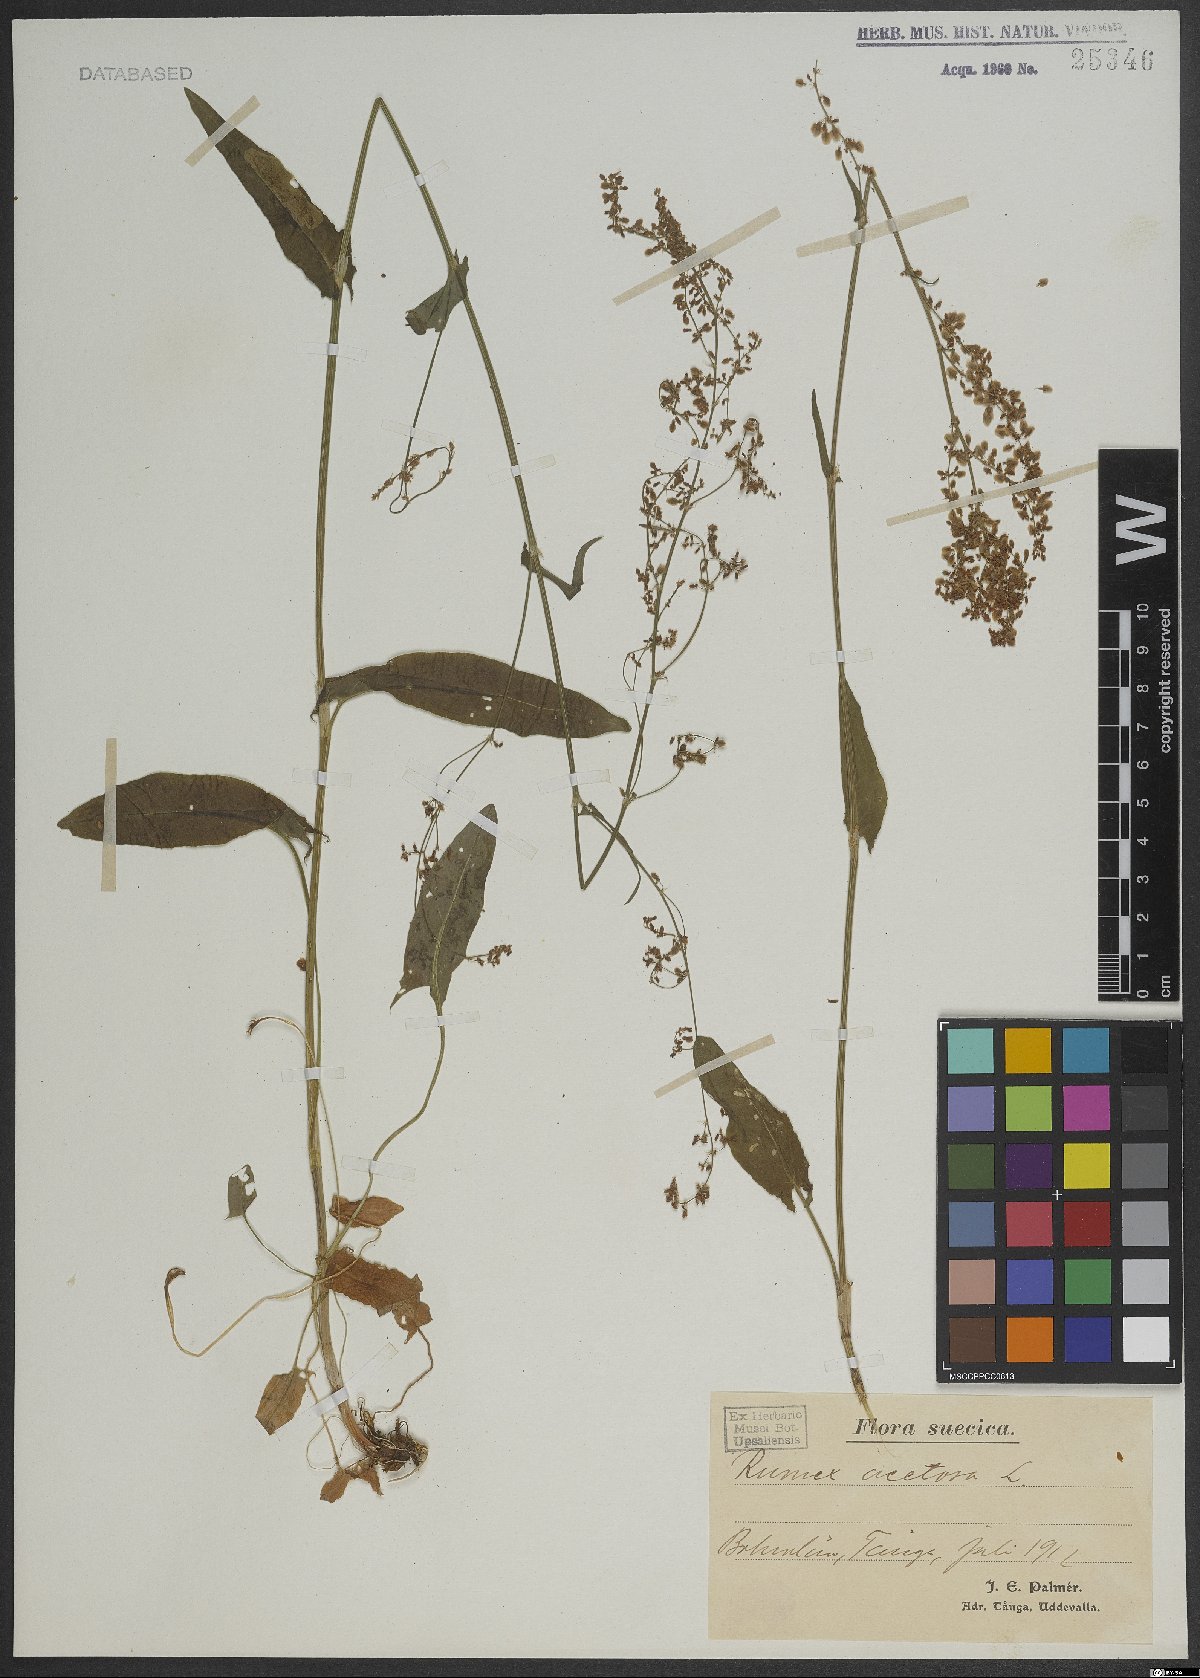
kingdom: Plantae
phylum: Tracheophyta
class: Magnoliopsida
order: Caryophyllales
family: Polygonaceae
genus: Rumex
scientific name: Rumex acetosa
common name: Garden sorrel
